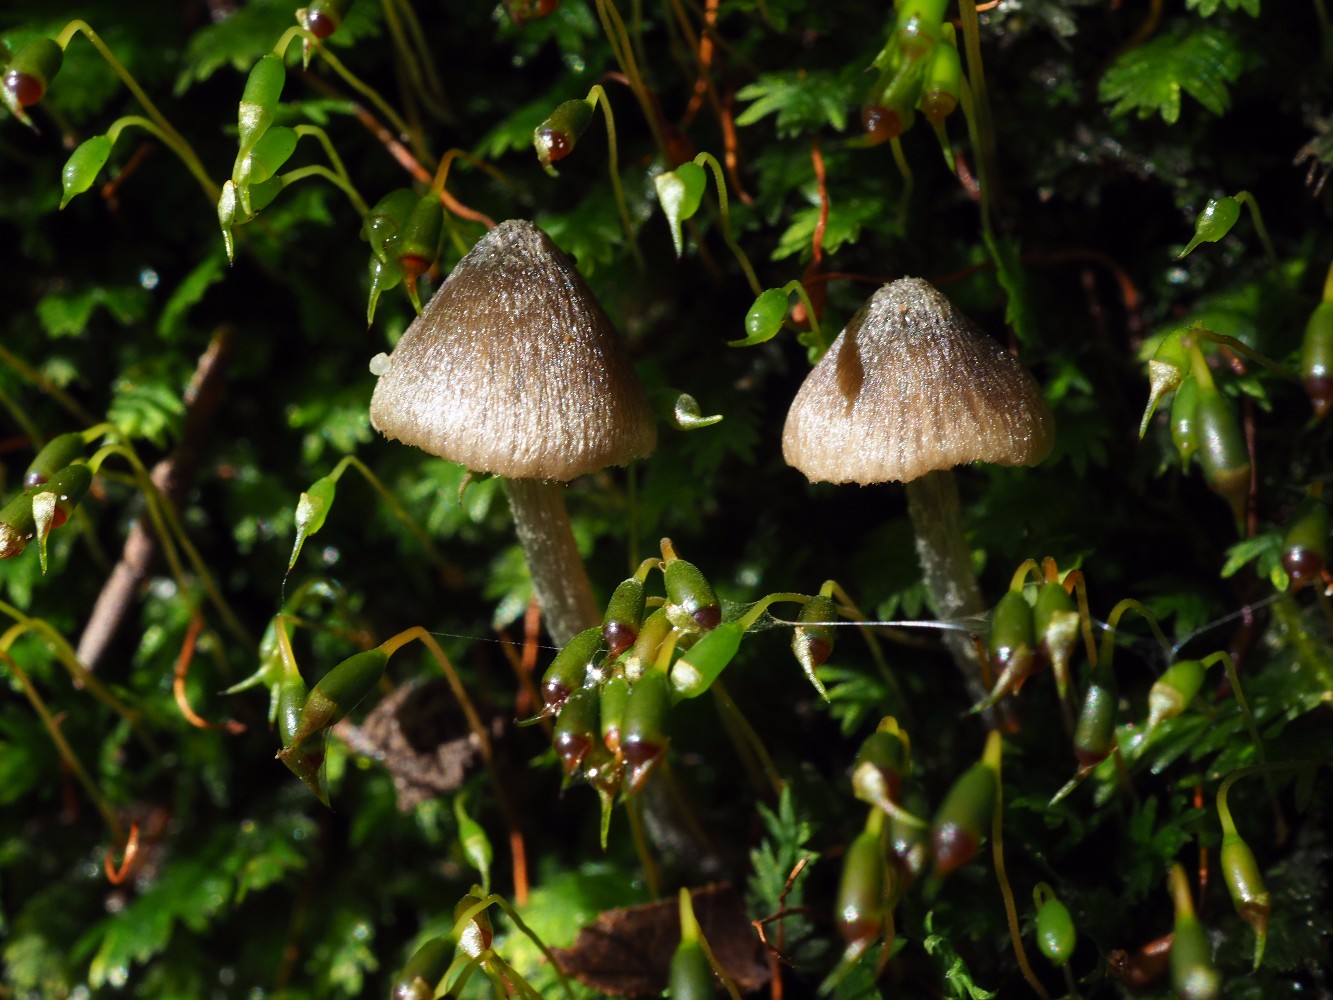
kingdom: Fungi
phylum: Basidiomycota
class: Agaricomycetes
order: Agaricales
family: Entolomataceae
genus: Entoloma
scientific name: Entoloma araneosum
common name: spindelvævs-rødblad
